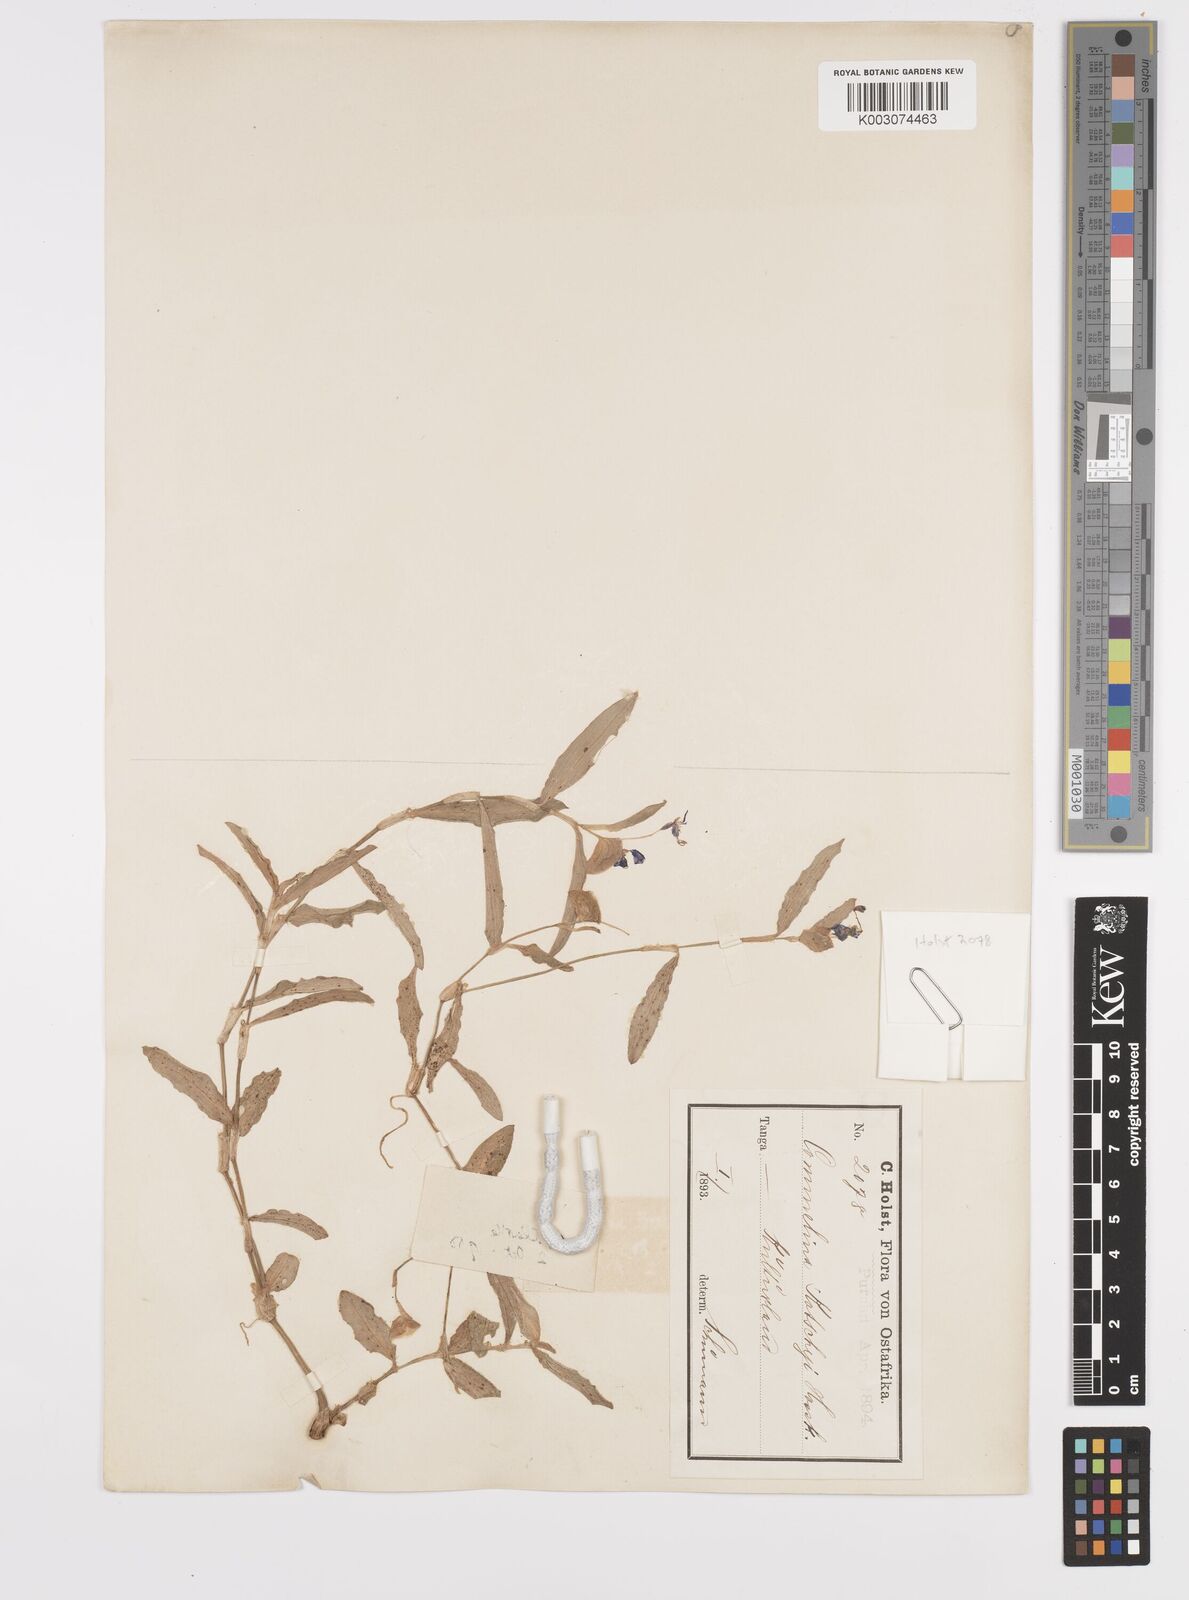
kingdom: Plantae
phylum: Tracheophyta
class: Liliopsida
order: Commelinales
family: Commelinaceae
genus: Commelina
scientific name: Commelina forskaolii
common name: Rat's ear
